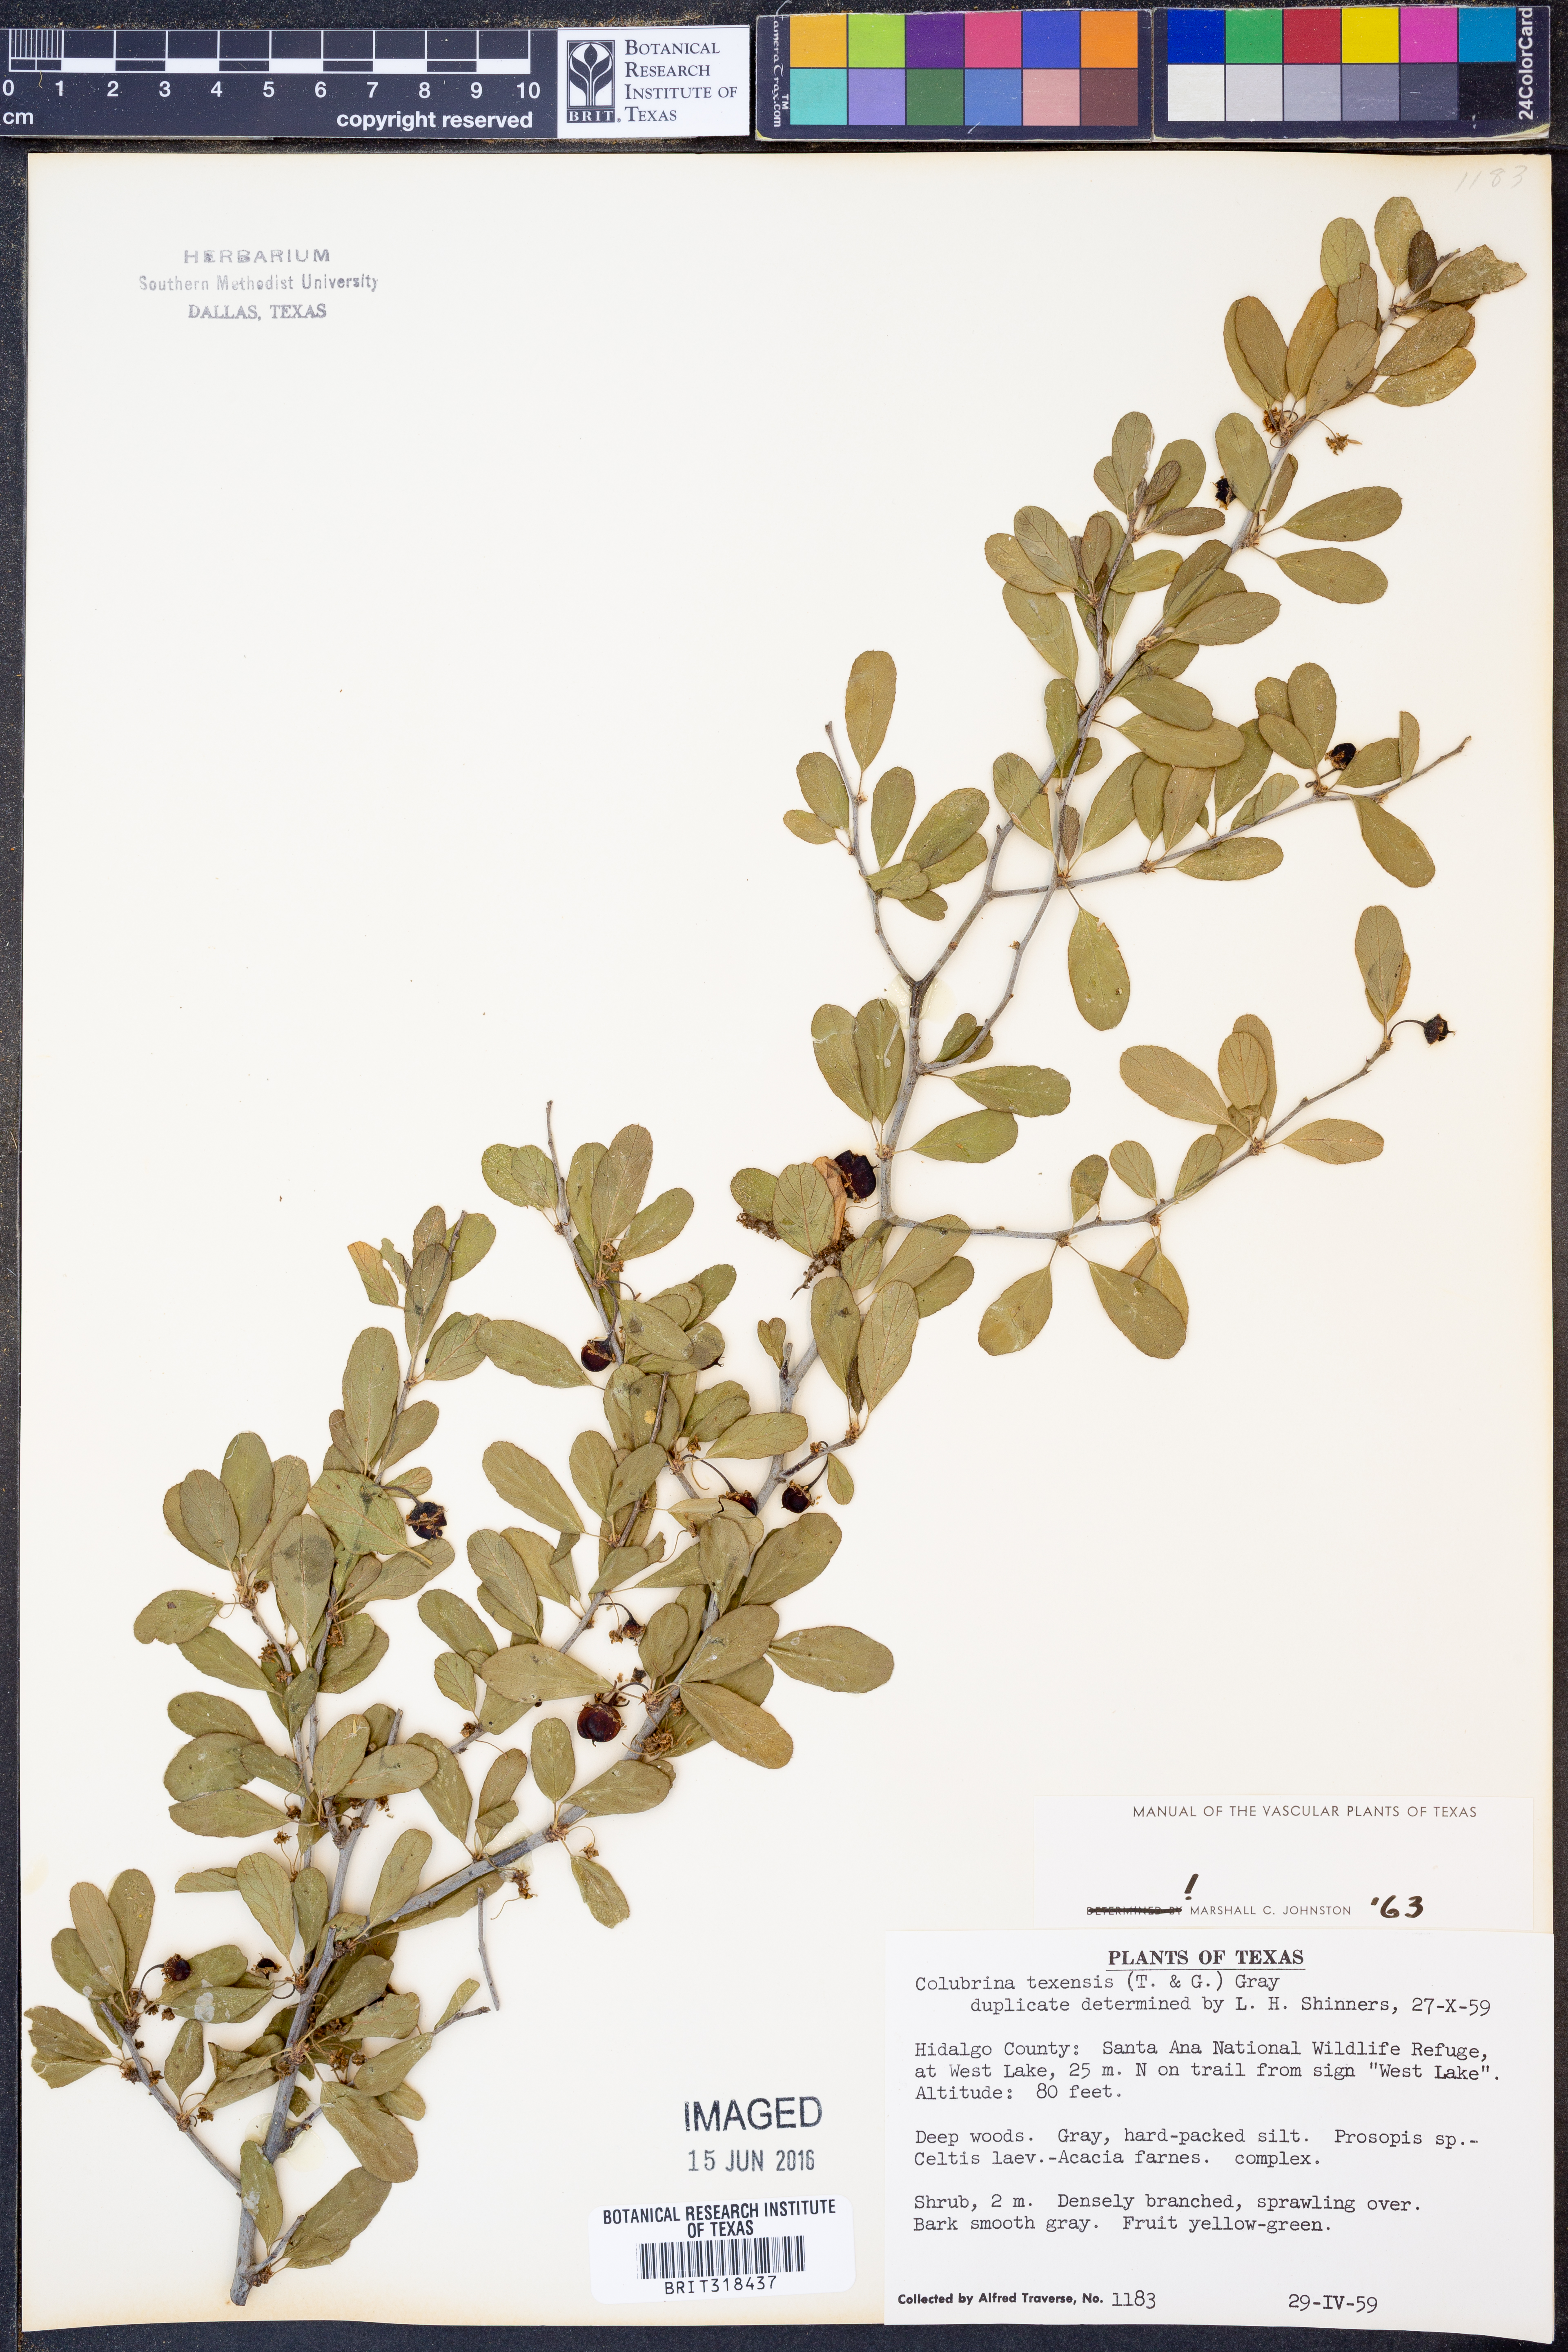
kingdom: Plantae
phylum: Tracheophyta
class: Magnoliopsida
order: Rosales
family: Rhamnaceae
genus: Colubrina
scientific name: Colubrina texensis
